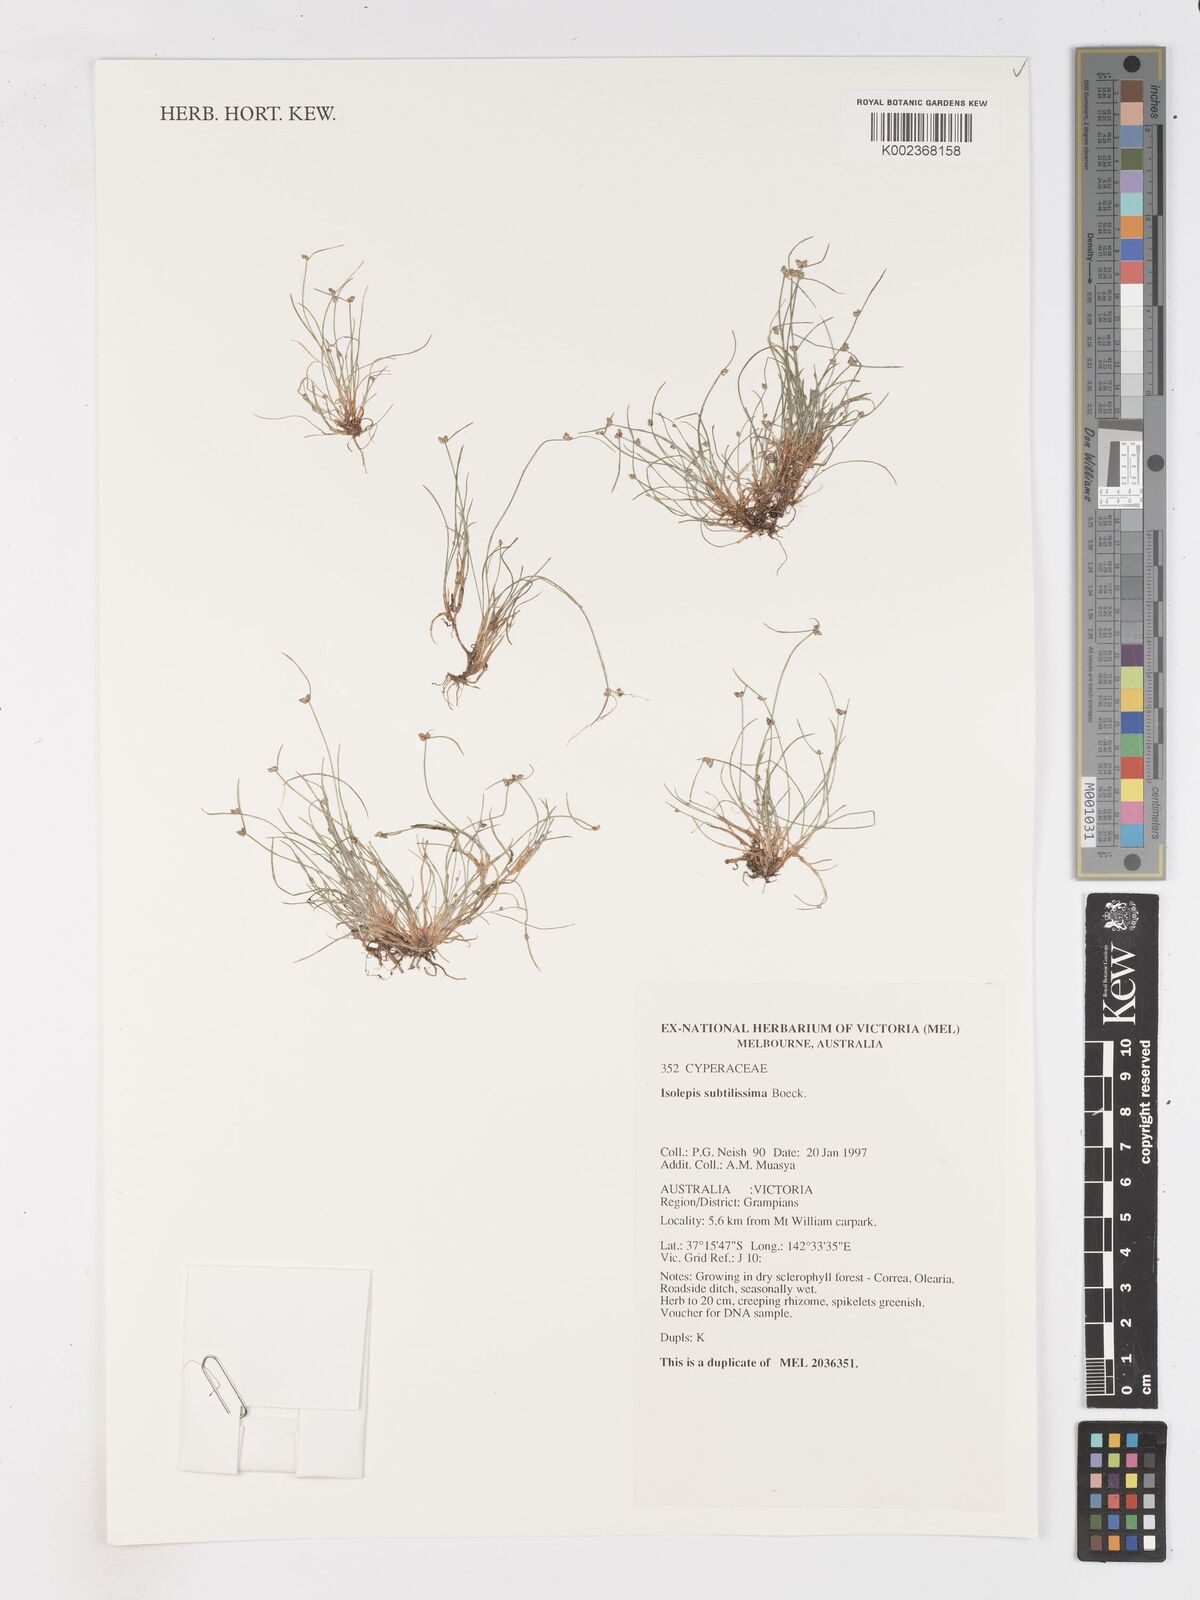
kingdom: Plantae
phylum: Tracheophyta
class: Liliopsida
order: Poales
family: Cyperaceae
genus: Isolepis
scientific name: Isolepis subtilissima
